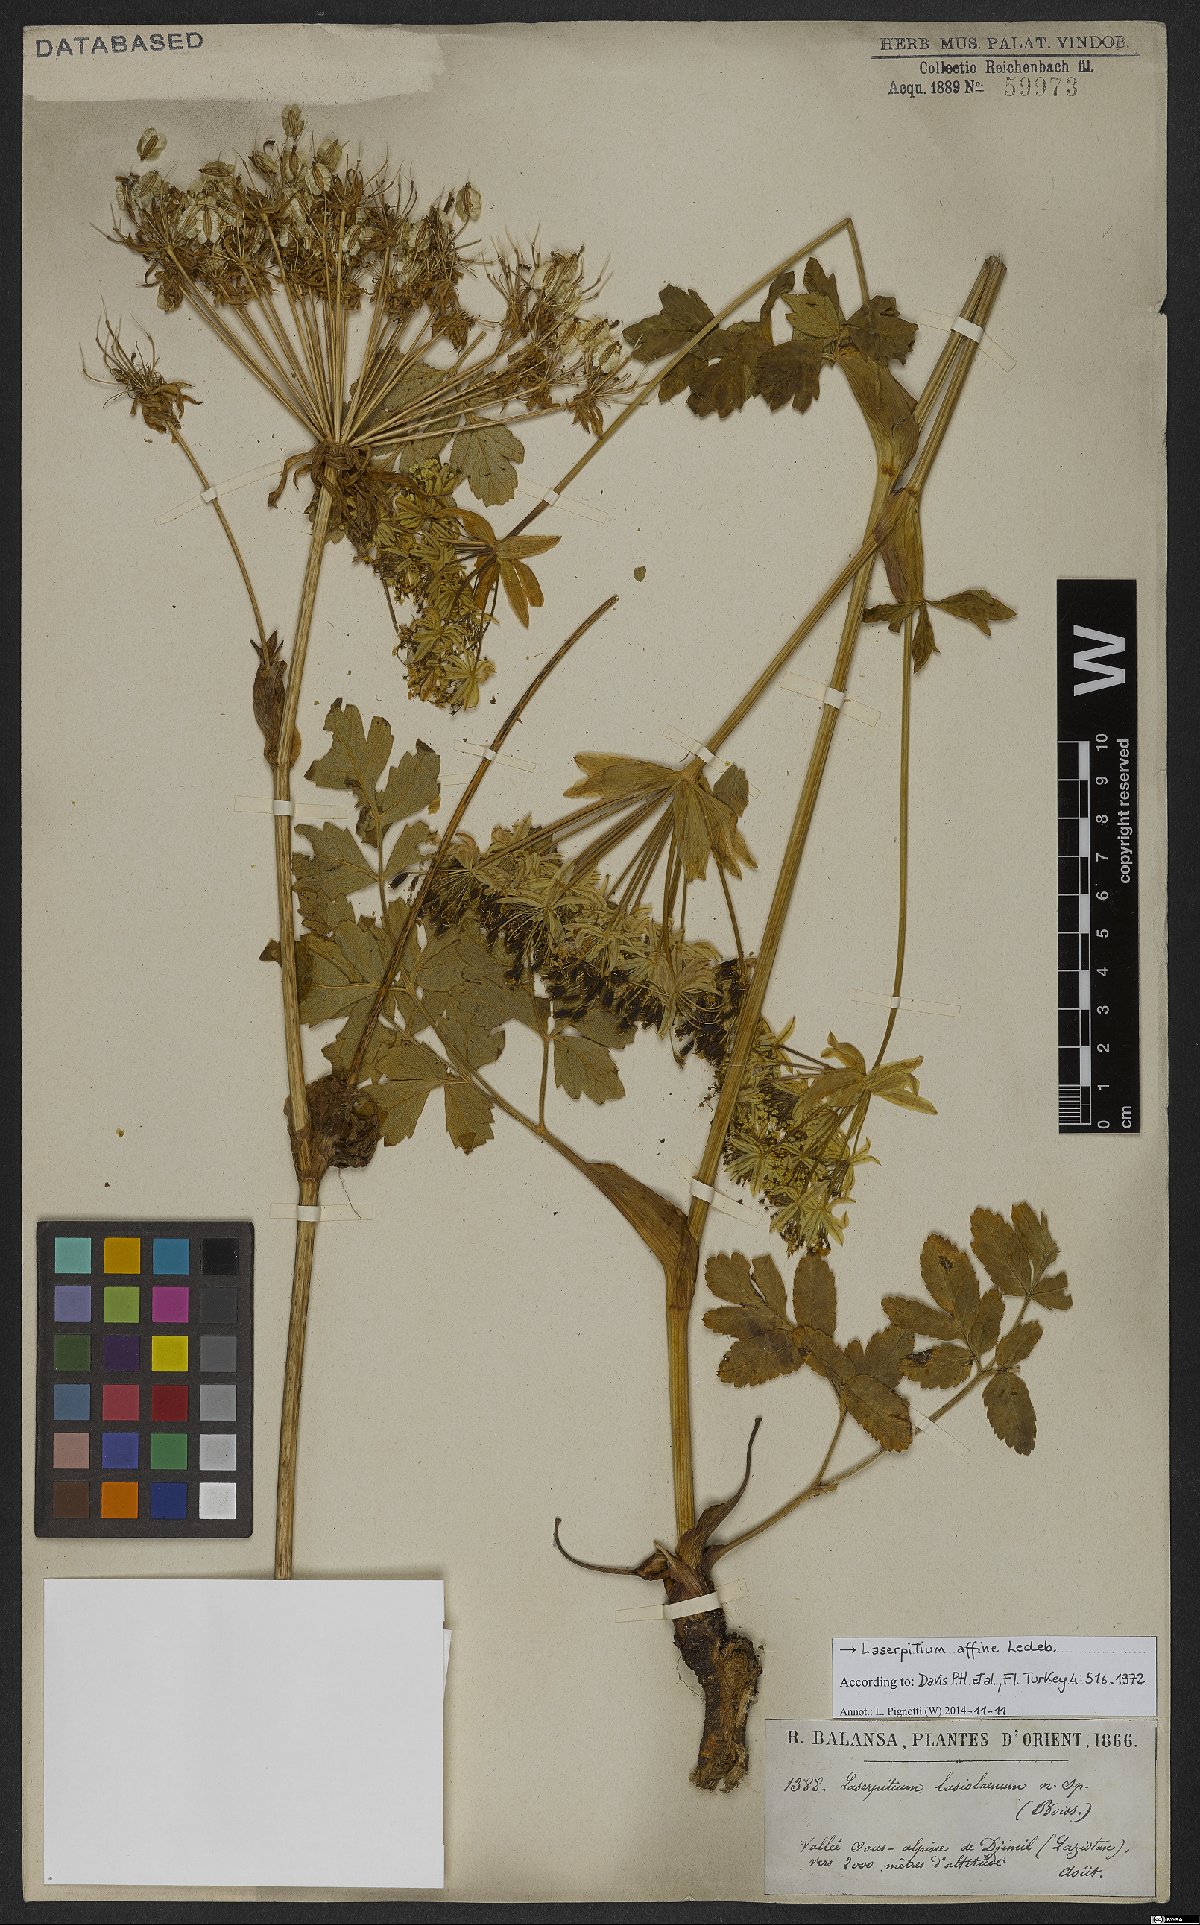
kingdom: Plantae
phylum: Tracheophyta
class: Magnoliopsida
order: Apiales
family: Apiaceae
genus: Laser
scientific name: Laser affine
